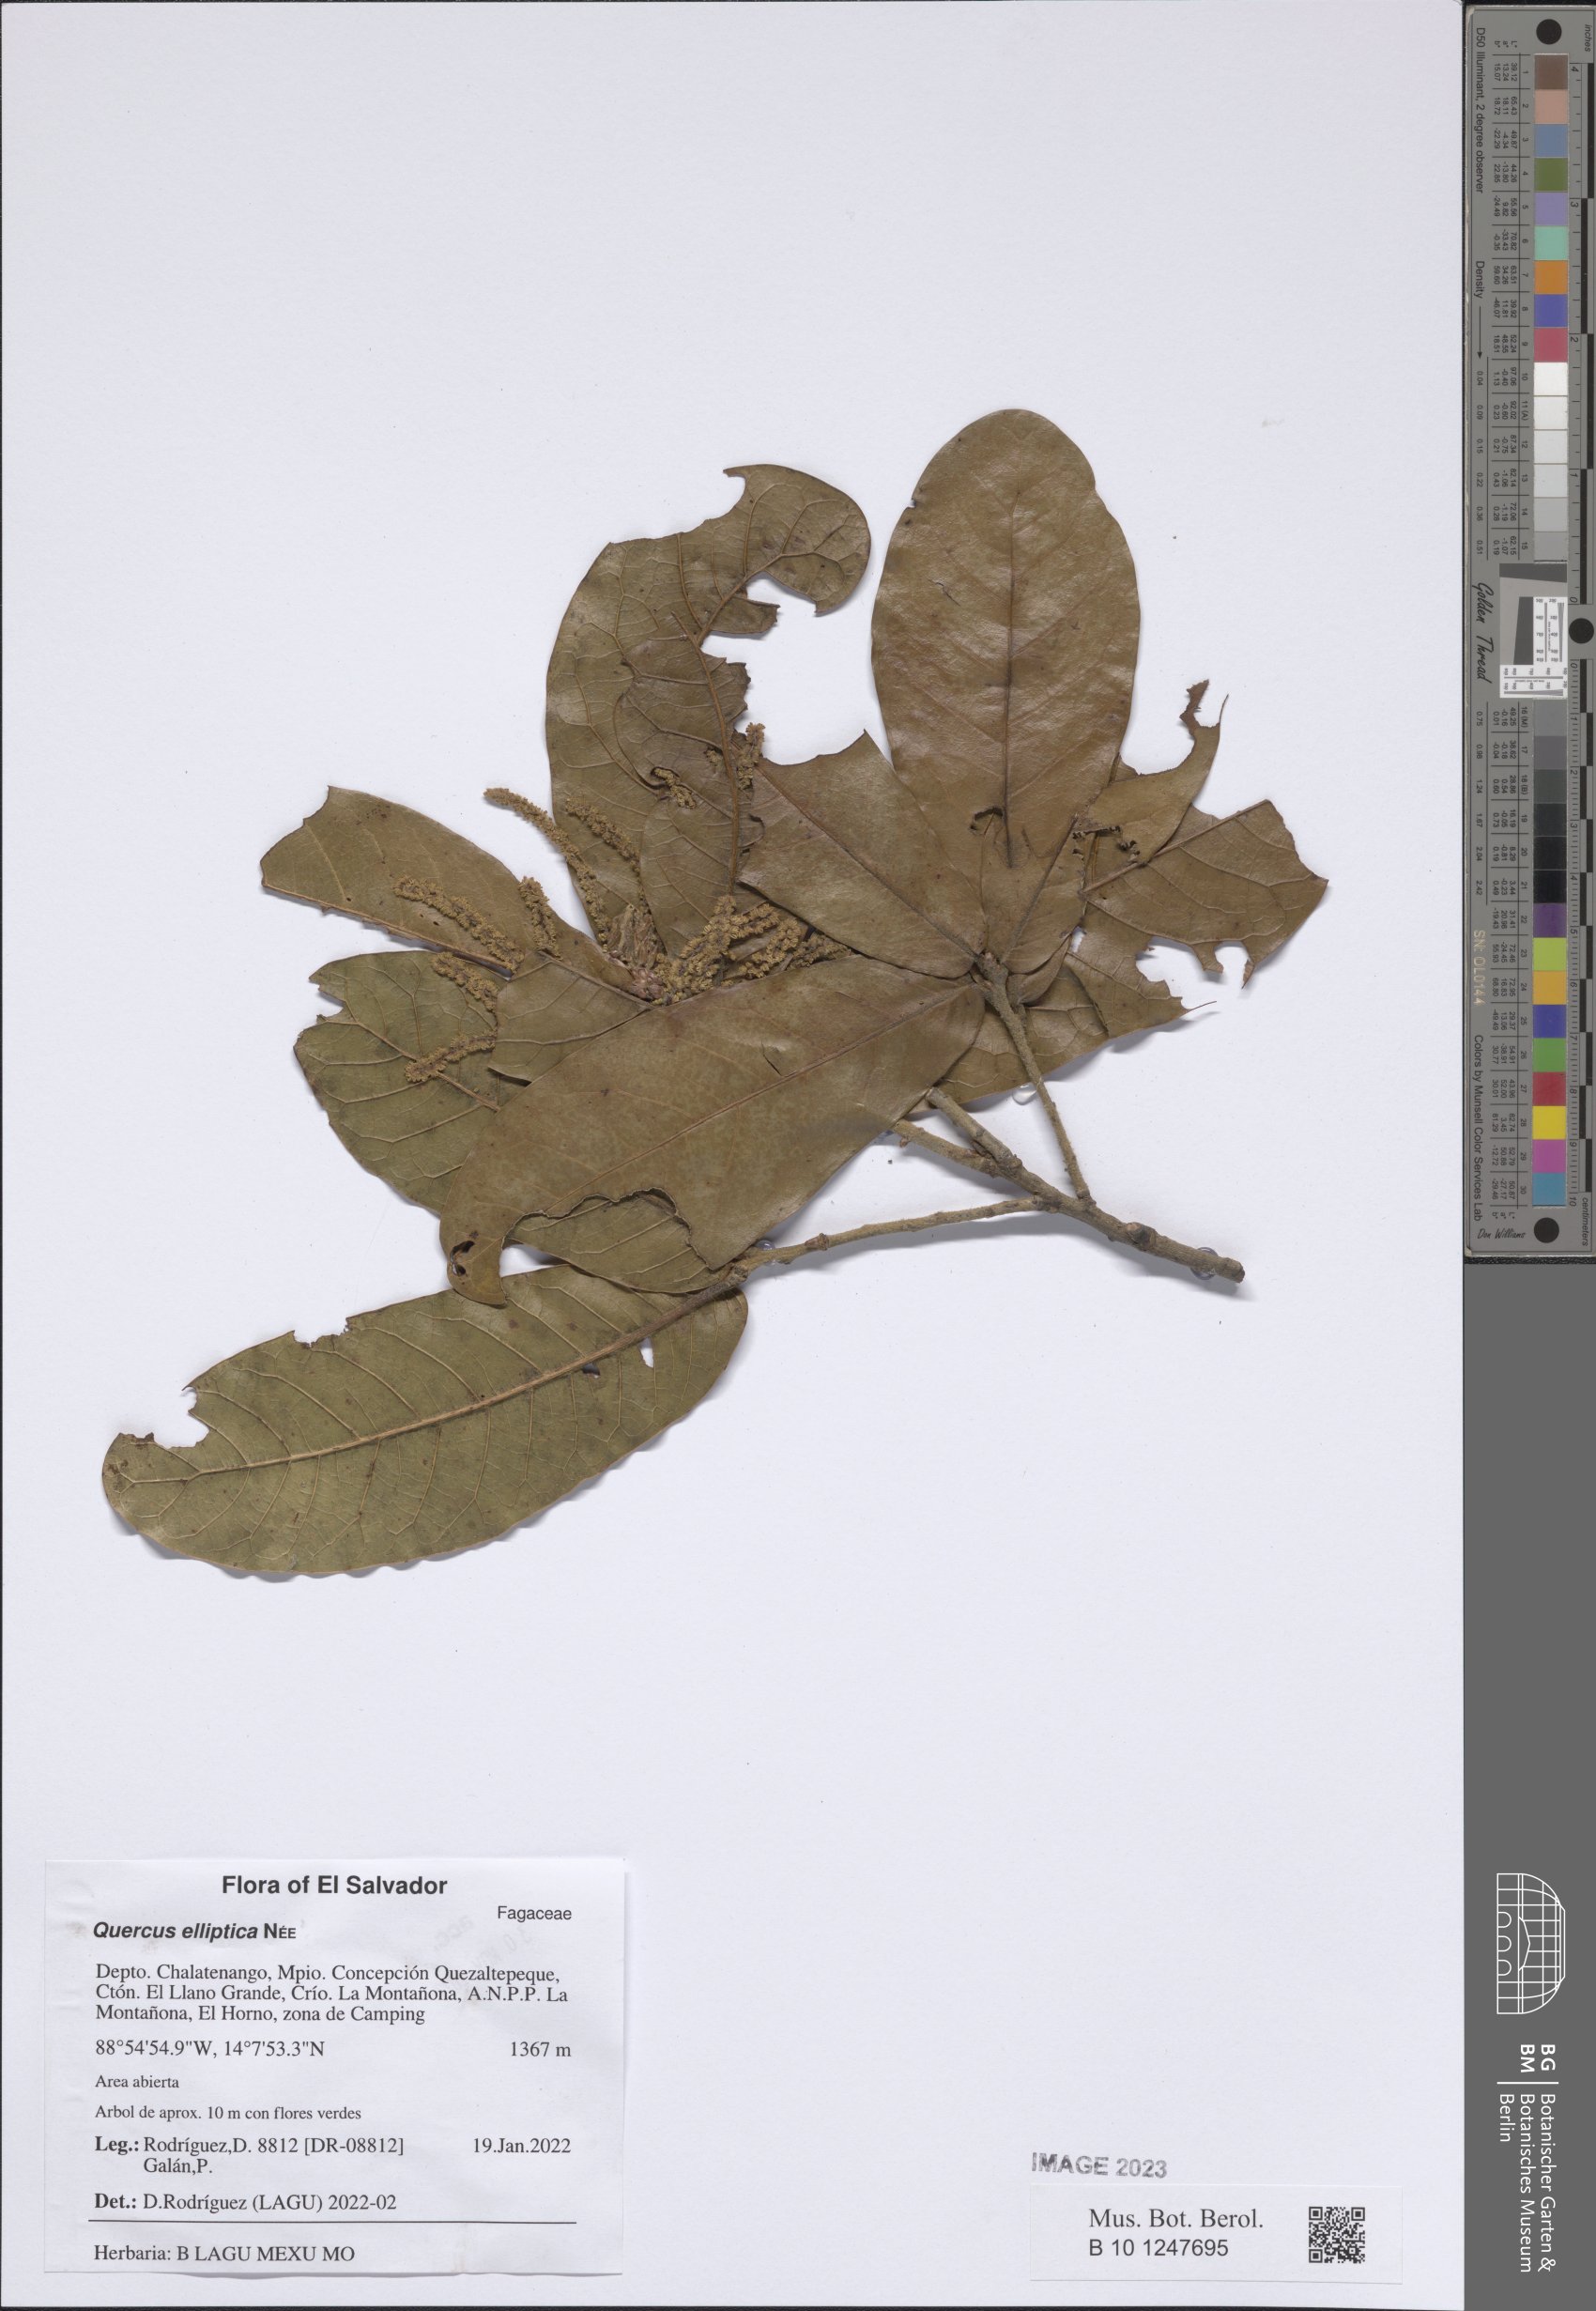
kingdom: Plantae
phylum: Tracheophyta
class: Magnoliopsida
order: Fagales
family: Fagaceae
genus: Quercus
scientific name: Quercus elliptica
